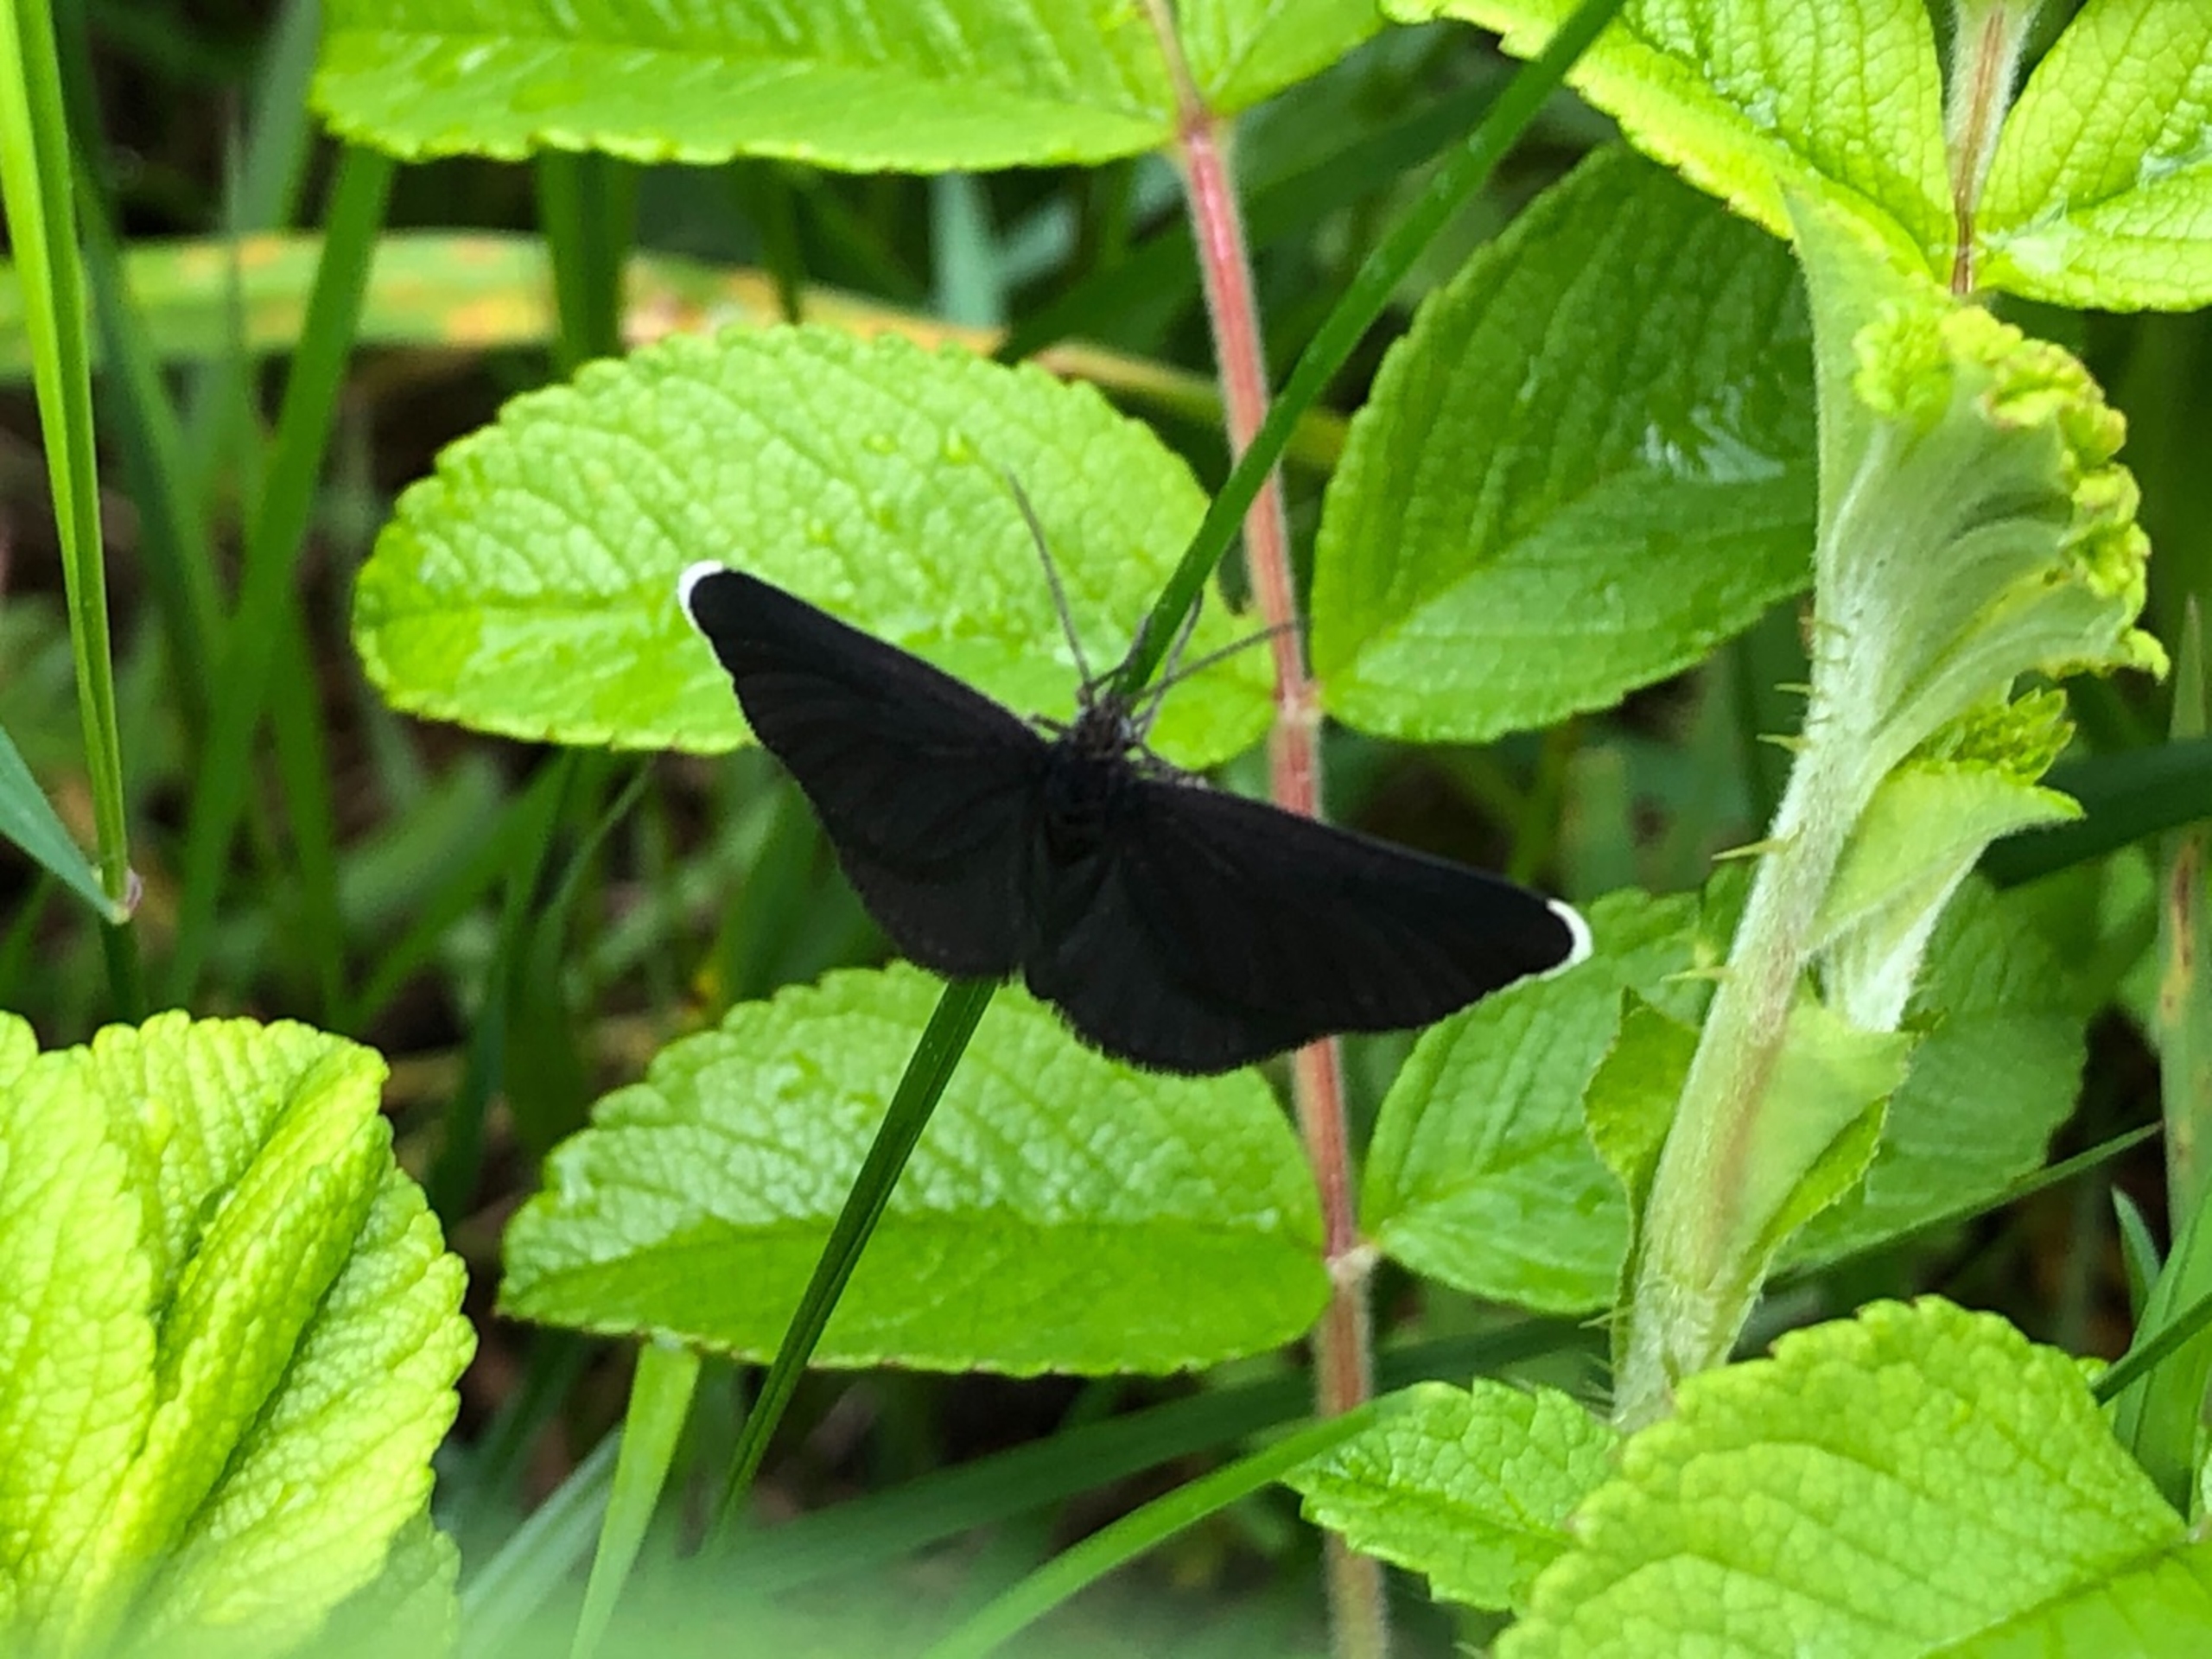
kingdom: Animalia
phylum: Arthropoda
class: Insecta
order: Lepidoptera
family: Geometridae
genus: Odezia
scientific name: Odezia atrata
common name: Sort måler
